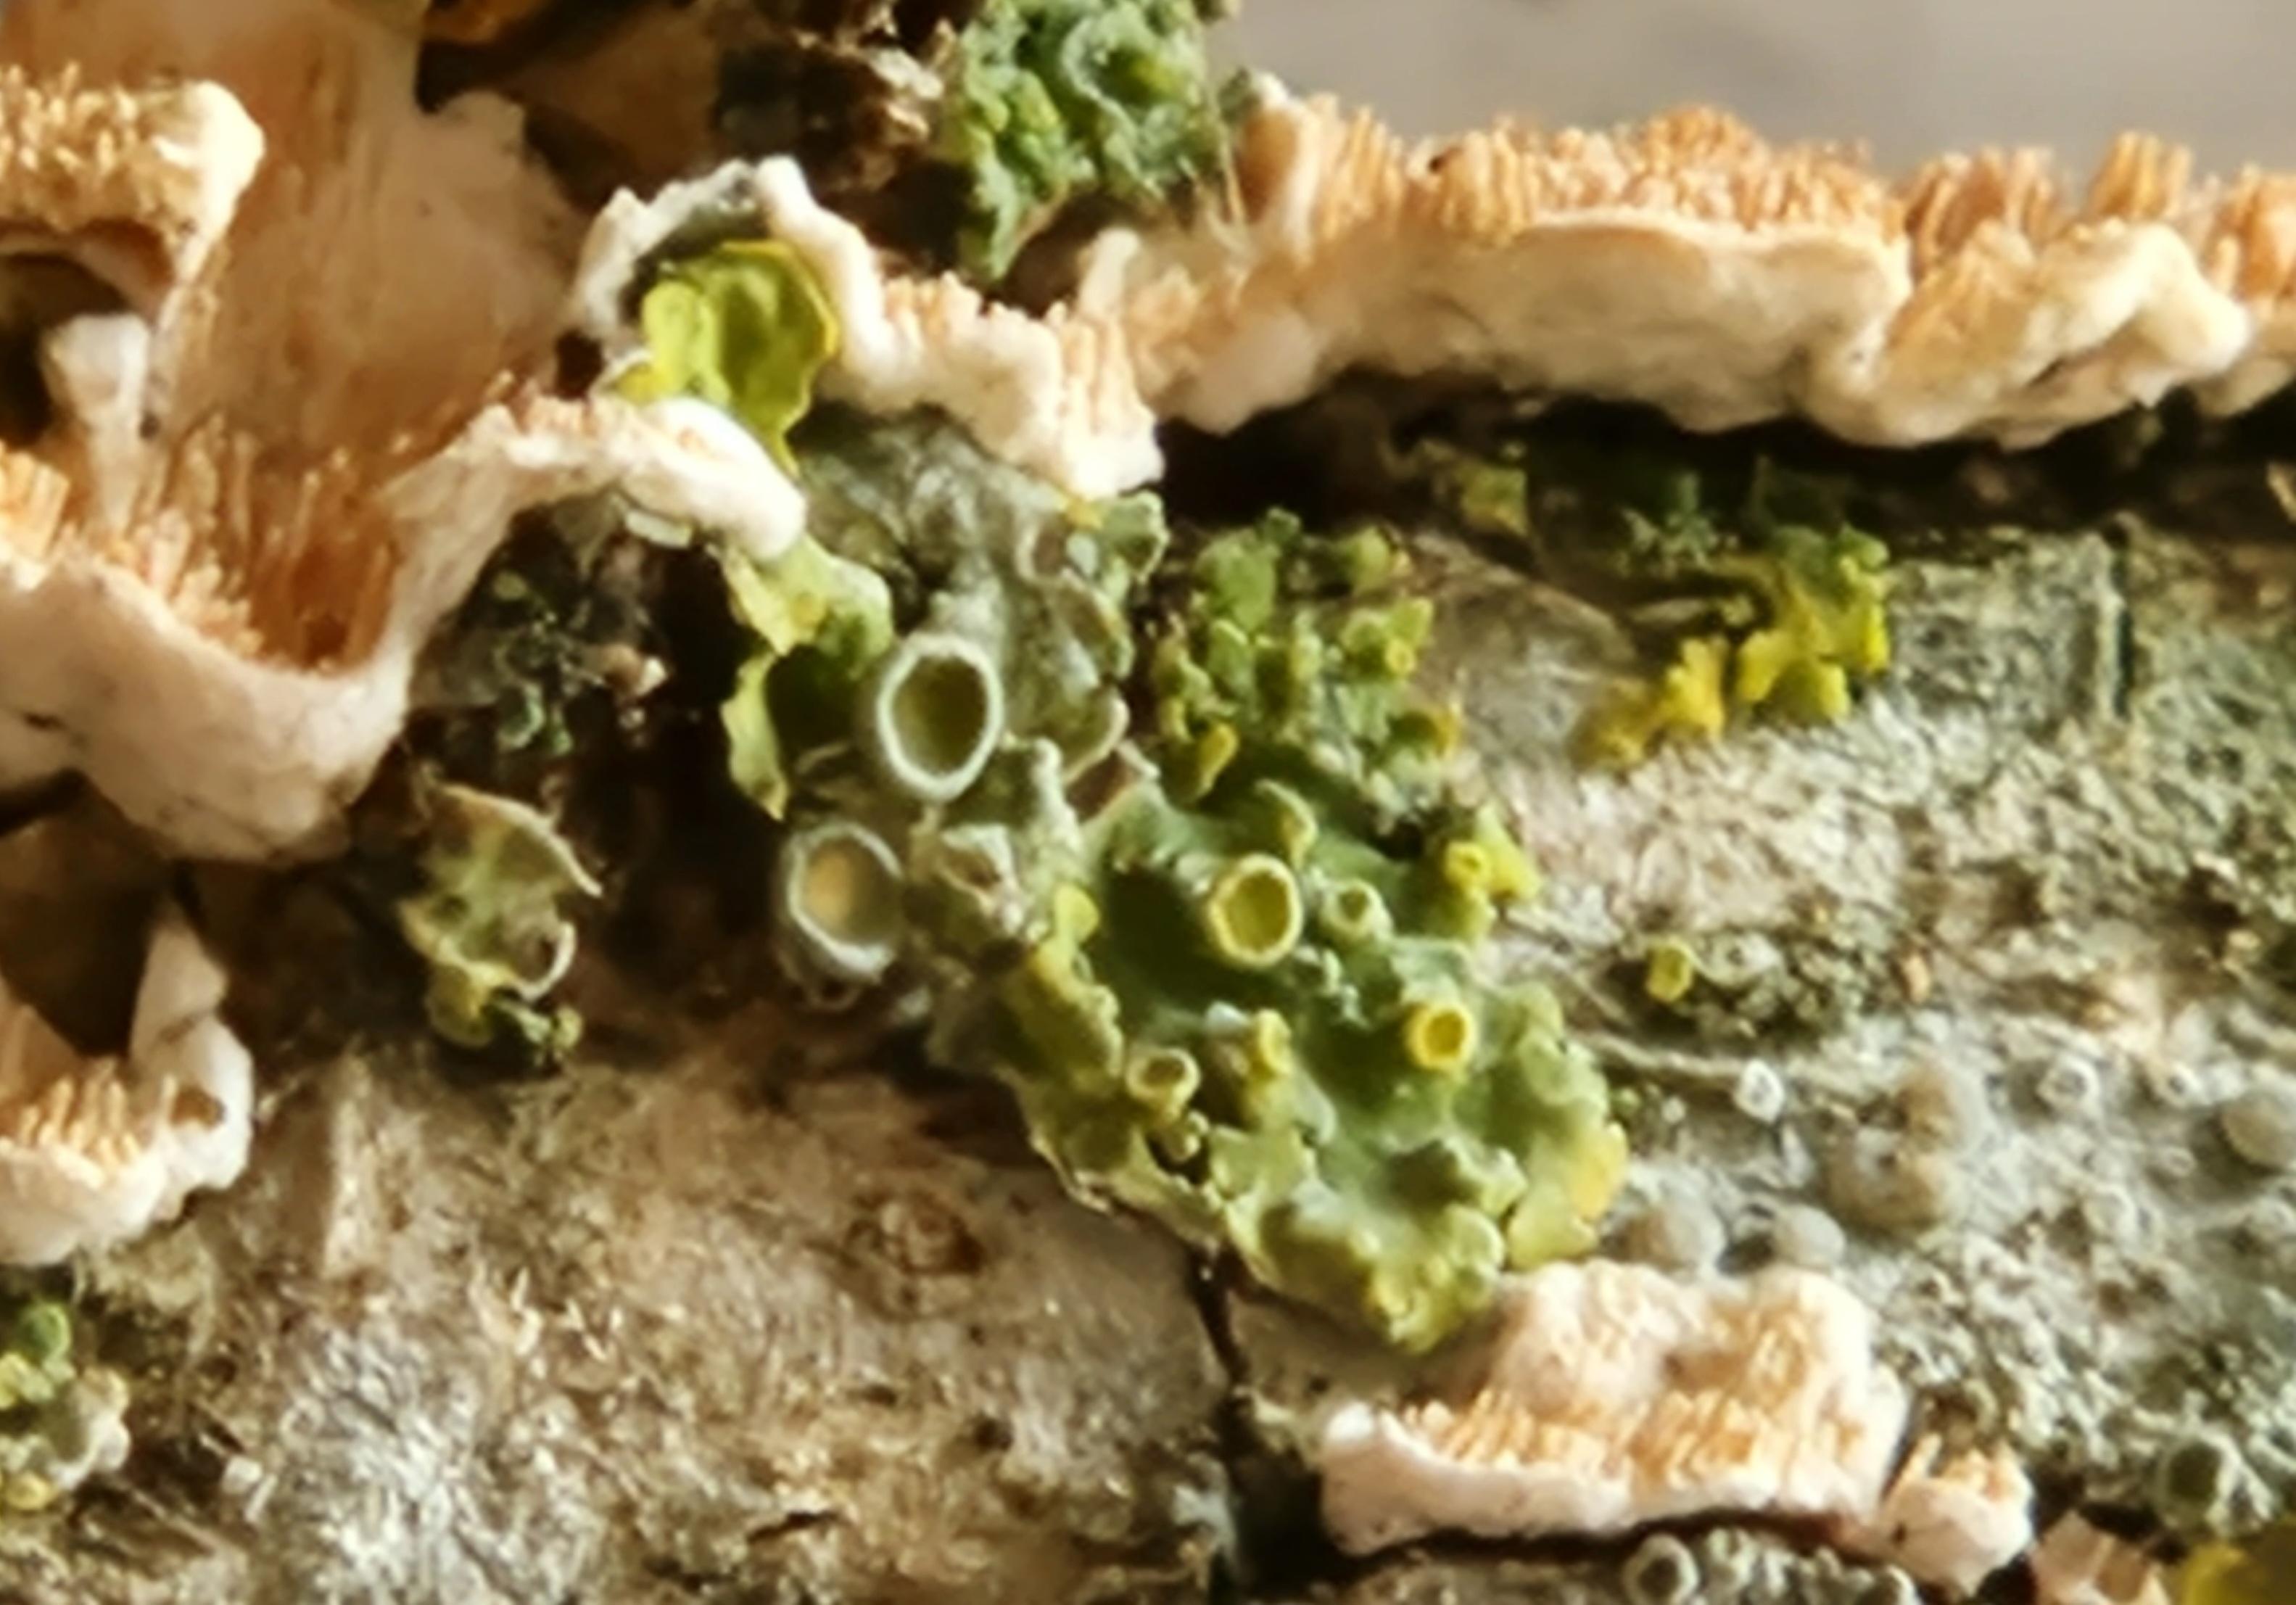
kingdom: Fungi
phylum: Ascomycota
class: Lecanoromycetes
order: Teloschistales
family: Teloschistaceae
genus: Xanthoria
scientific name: Xanthoria parietina
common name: almindelig væggelav
